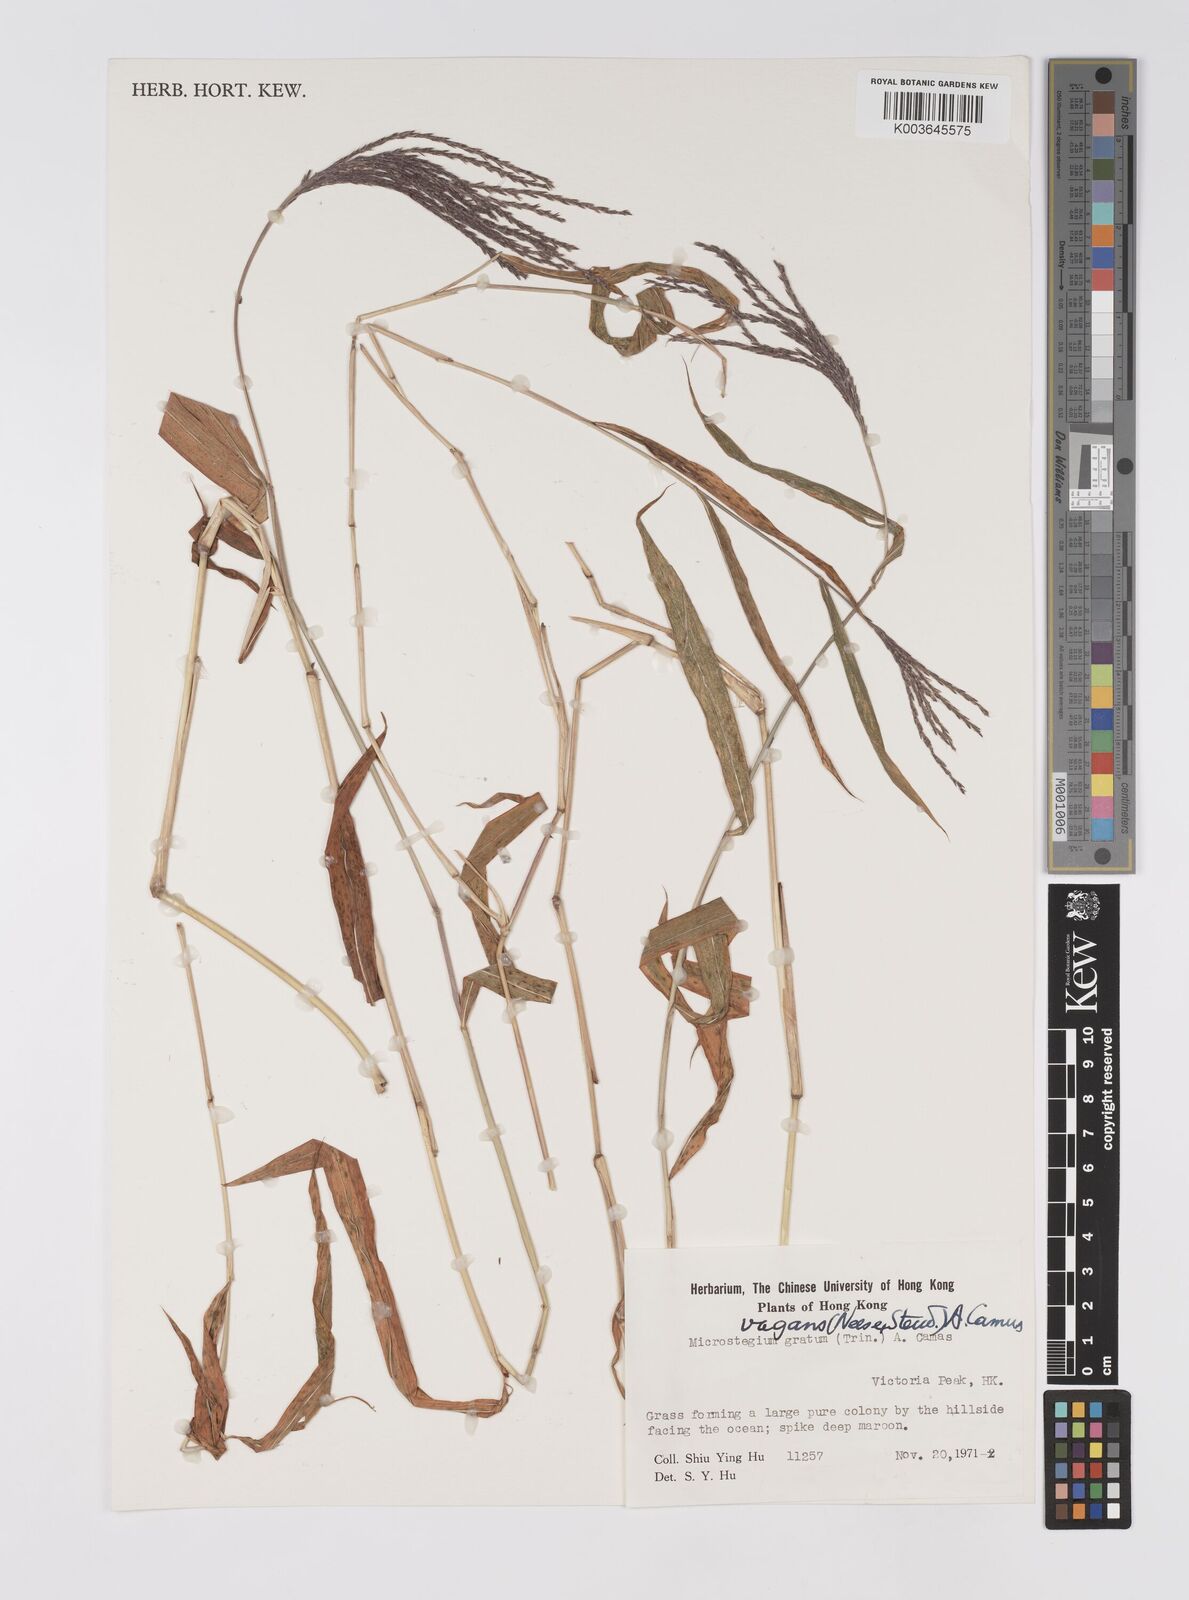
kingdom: Plantae
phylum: Tracheophyta
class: Liliopsida
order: Poales
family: Poaceae
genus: Microstegium
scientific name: Microstegium fasciculatum
